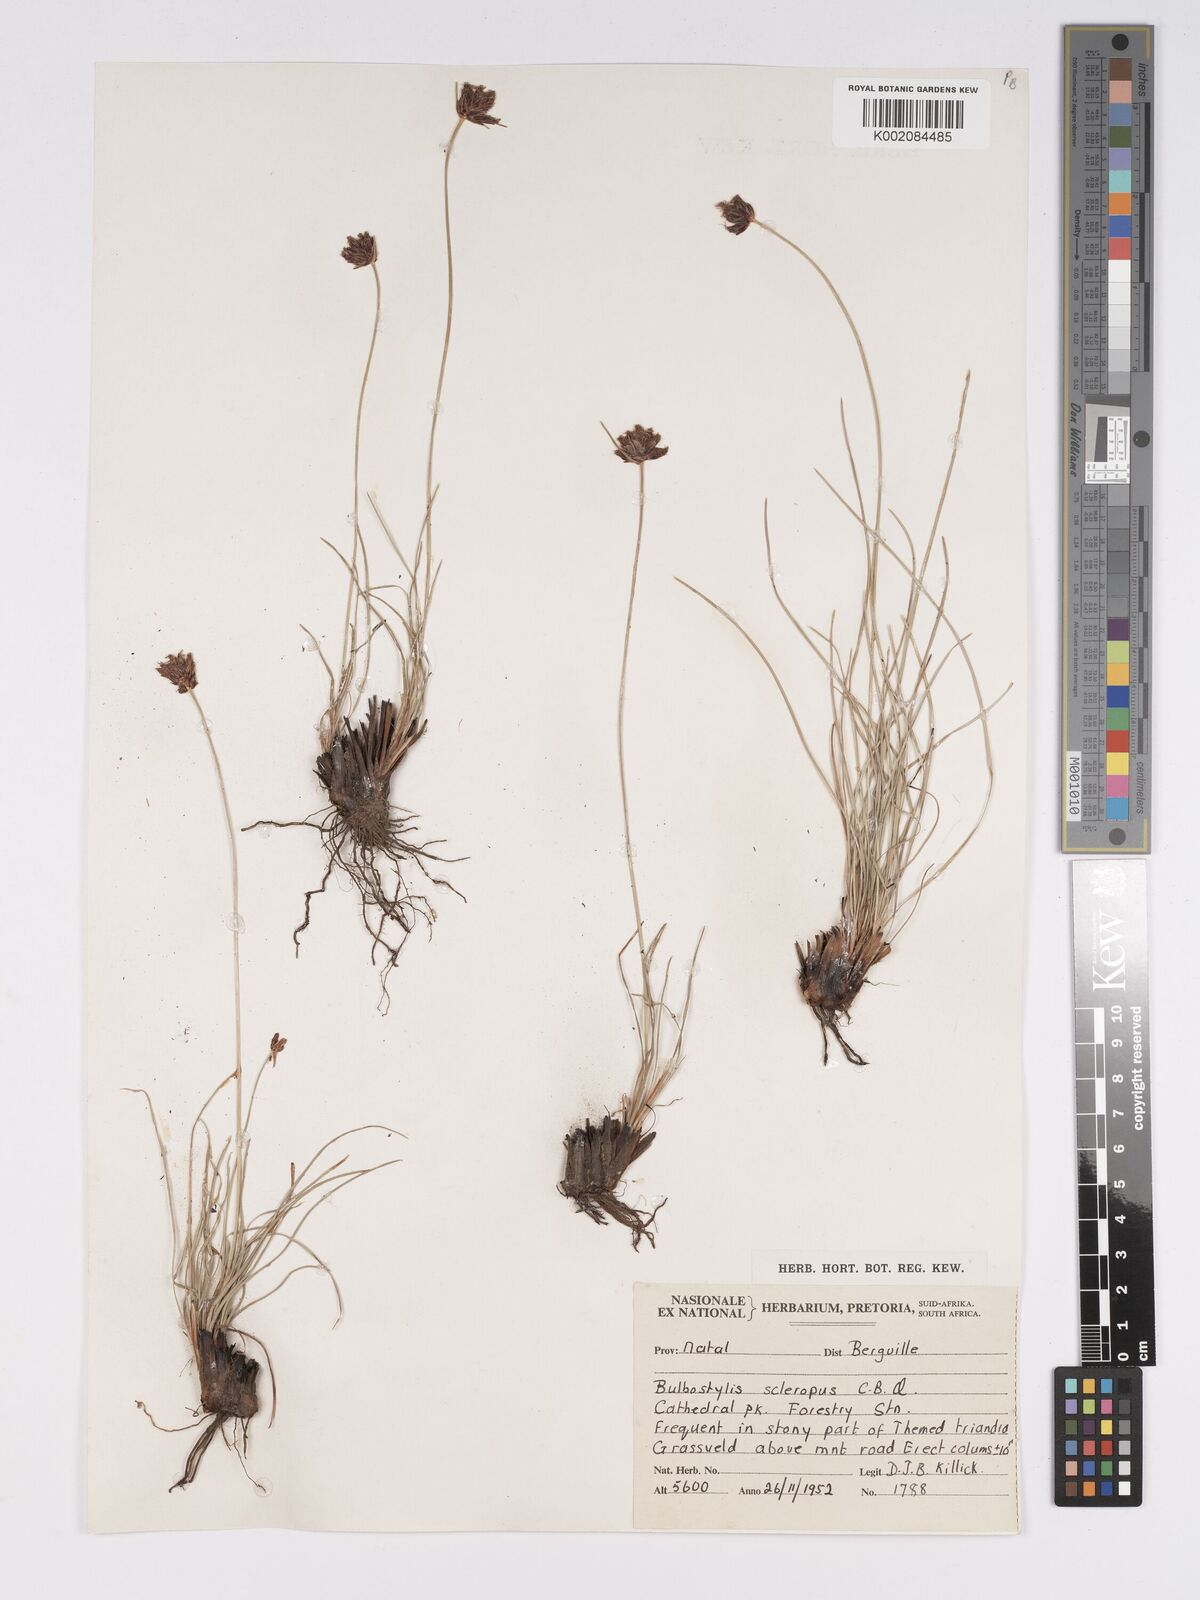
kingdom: Plantae
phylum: Tracheophyta
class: Liliopsida
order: Poales
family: Cyperaceae
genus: Bulbostylis
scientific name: Bulbostylis schoenoides
